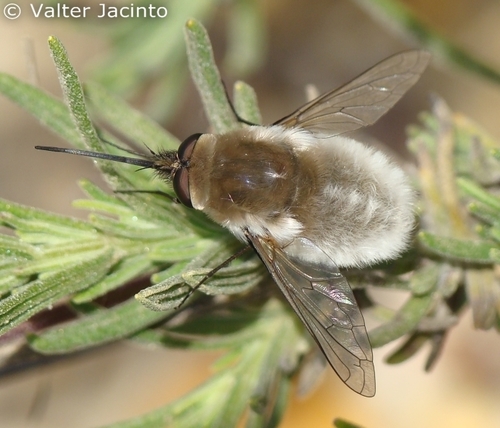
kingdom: Animalia
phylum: Arthropoda
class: Insecta
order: Diptera
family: Bombyliidae
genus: Dischistus
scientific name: Dischistus biroi
